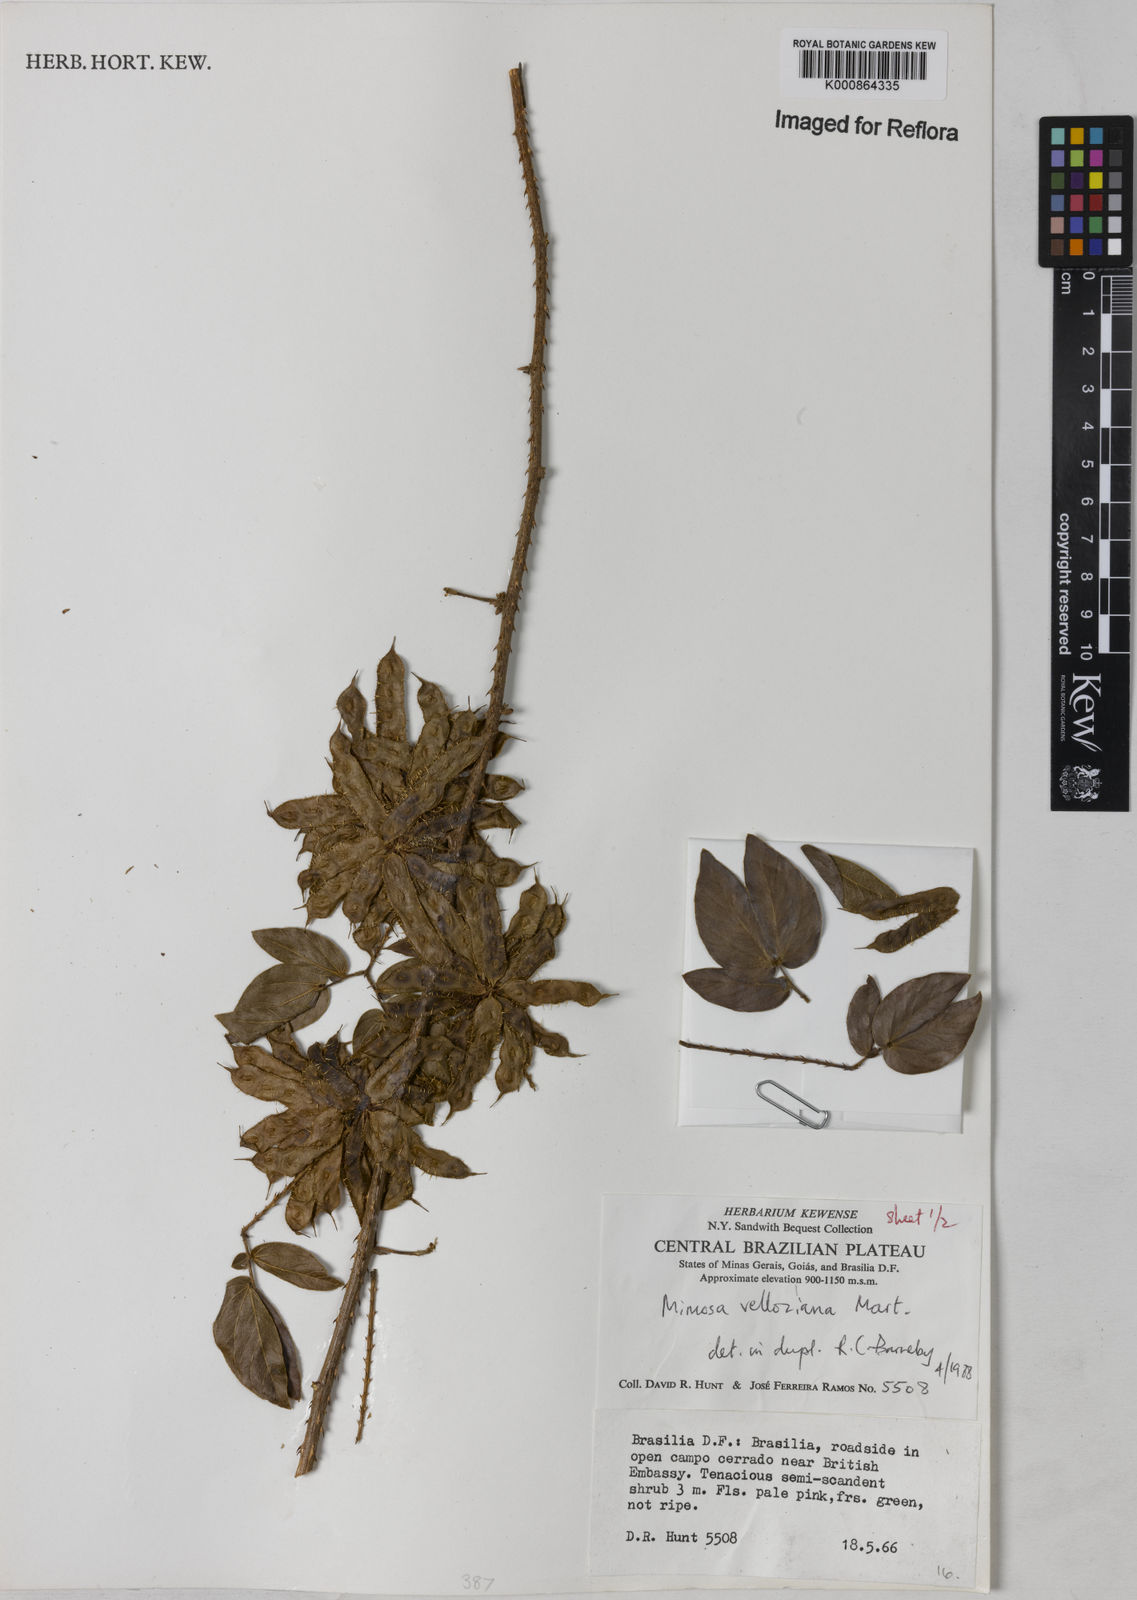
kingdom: Plantae
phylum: Tracheophyta
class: Magnoliopsida
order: Fabales
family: Fabaceae
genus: Mimosa
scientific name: Mimosa velloziana
